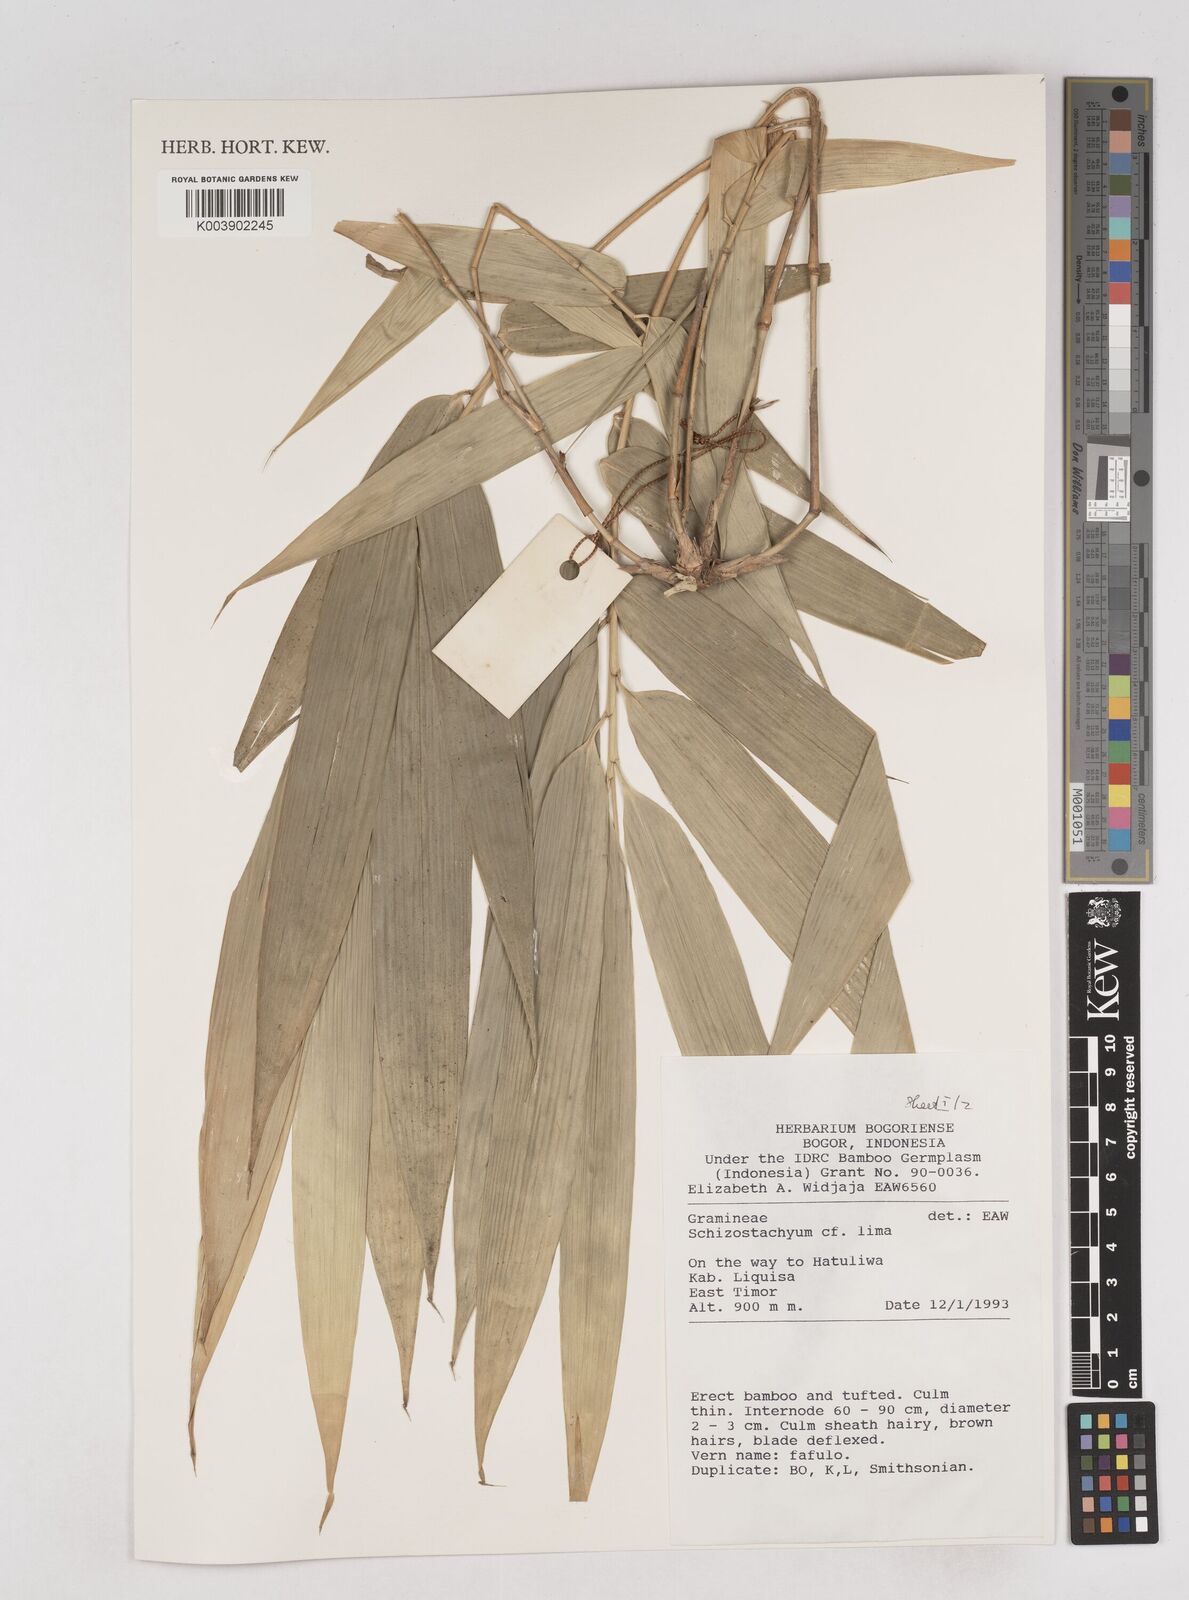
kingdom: Plantae
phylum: Tracheophyta
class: Liliopsida
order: Poales
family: Poaceae
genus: Schizostachyum
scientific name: Schizostachyum lima
